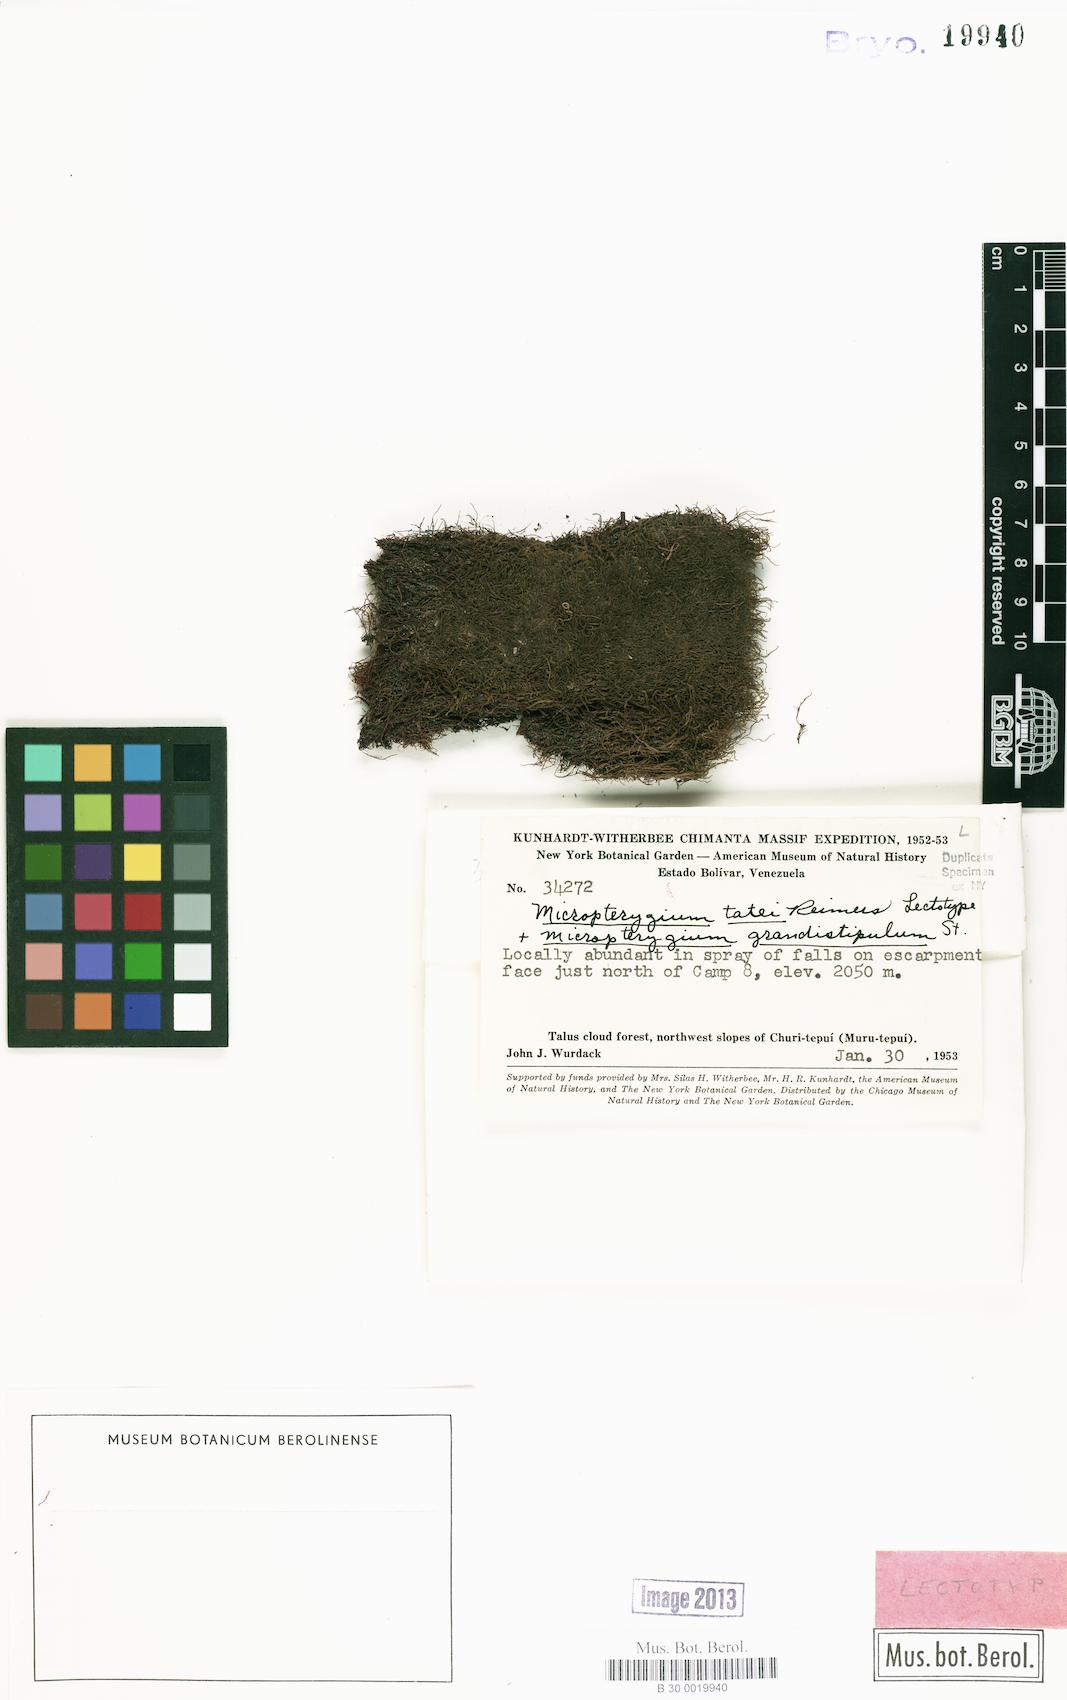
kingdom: Plantae
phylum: Marchantiophyta
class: Jungermanniopsida
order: Jungermanniales
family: Lepidoziaceae
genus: Micropterygium
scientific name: Micropterygium tatei
